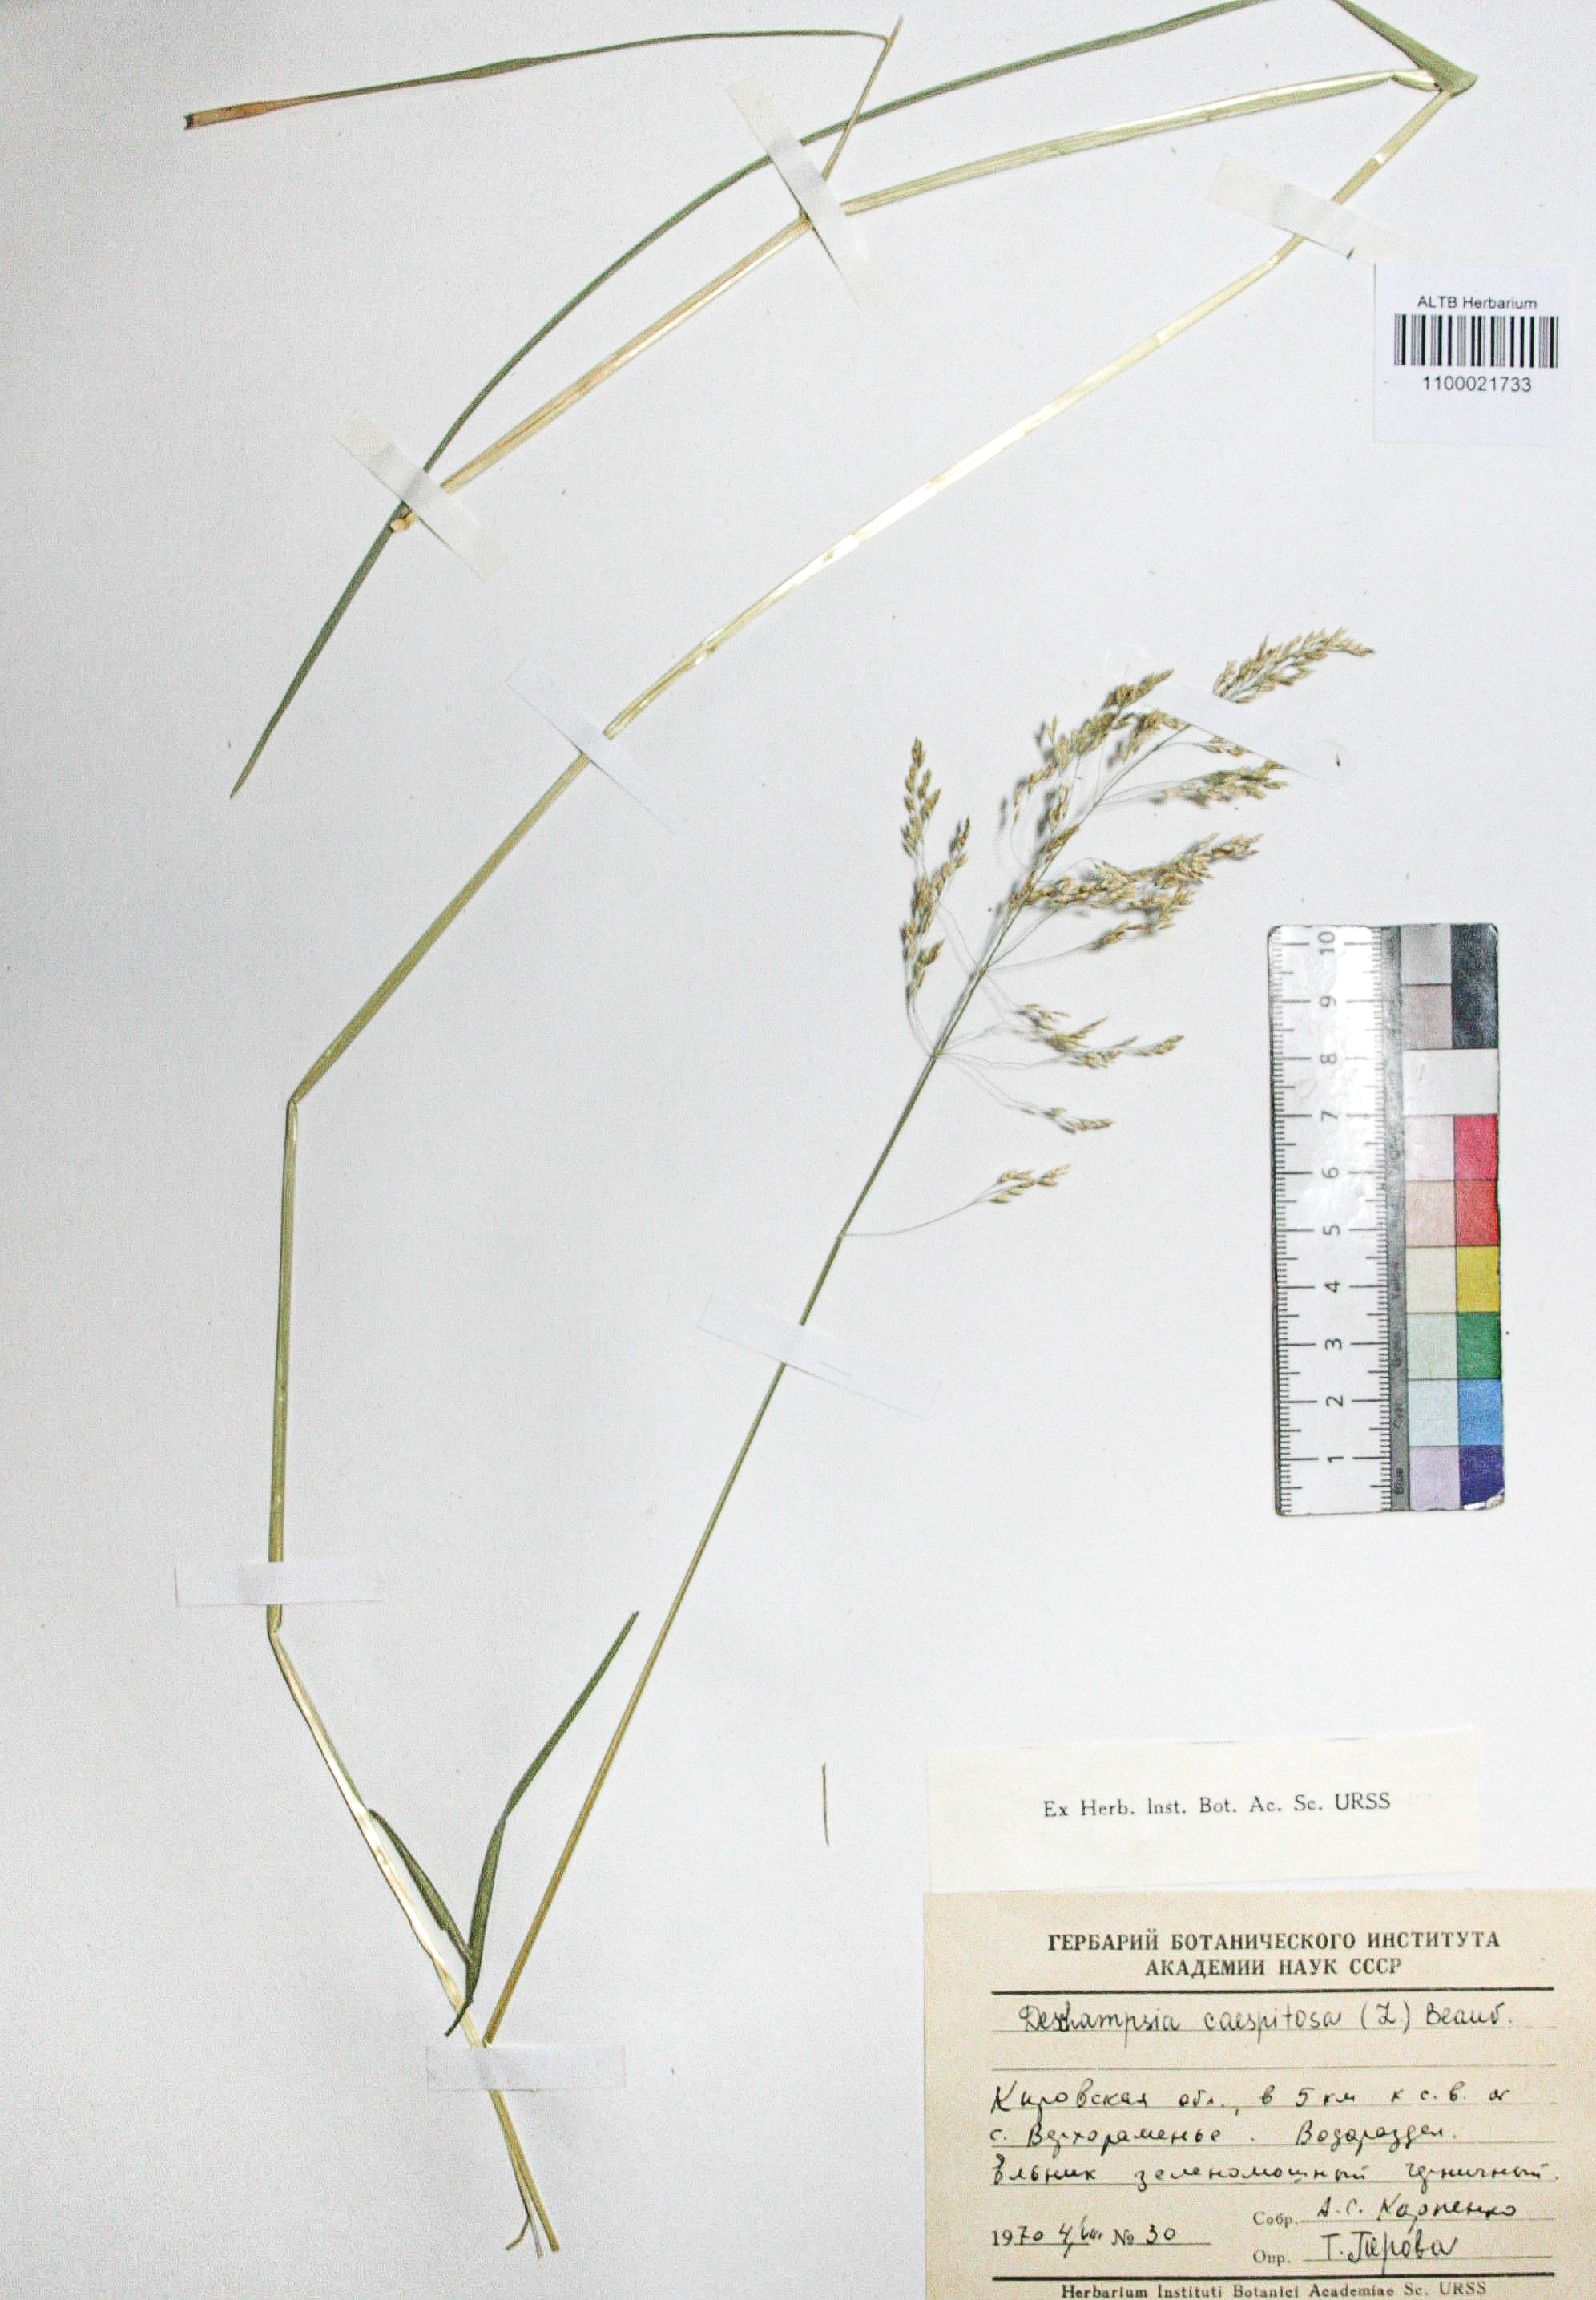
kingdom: Plantae
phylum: Tracheophyta
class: Liliopsida
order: Poales
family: Poaceae
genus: Deschampsia
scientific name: Deschampsia cespitosa
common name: Tufted hair-grass
